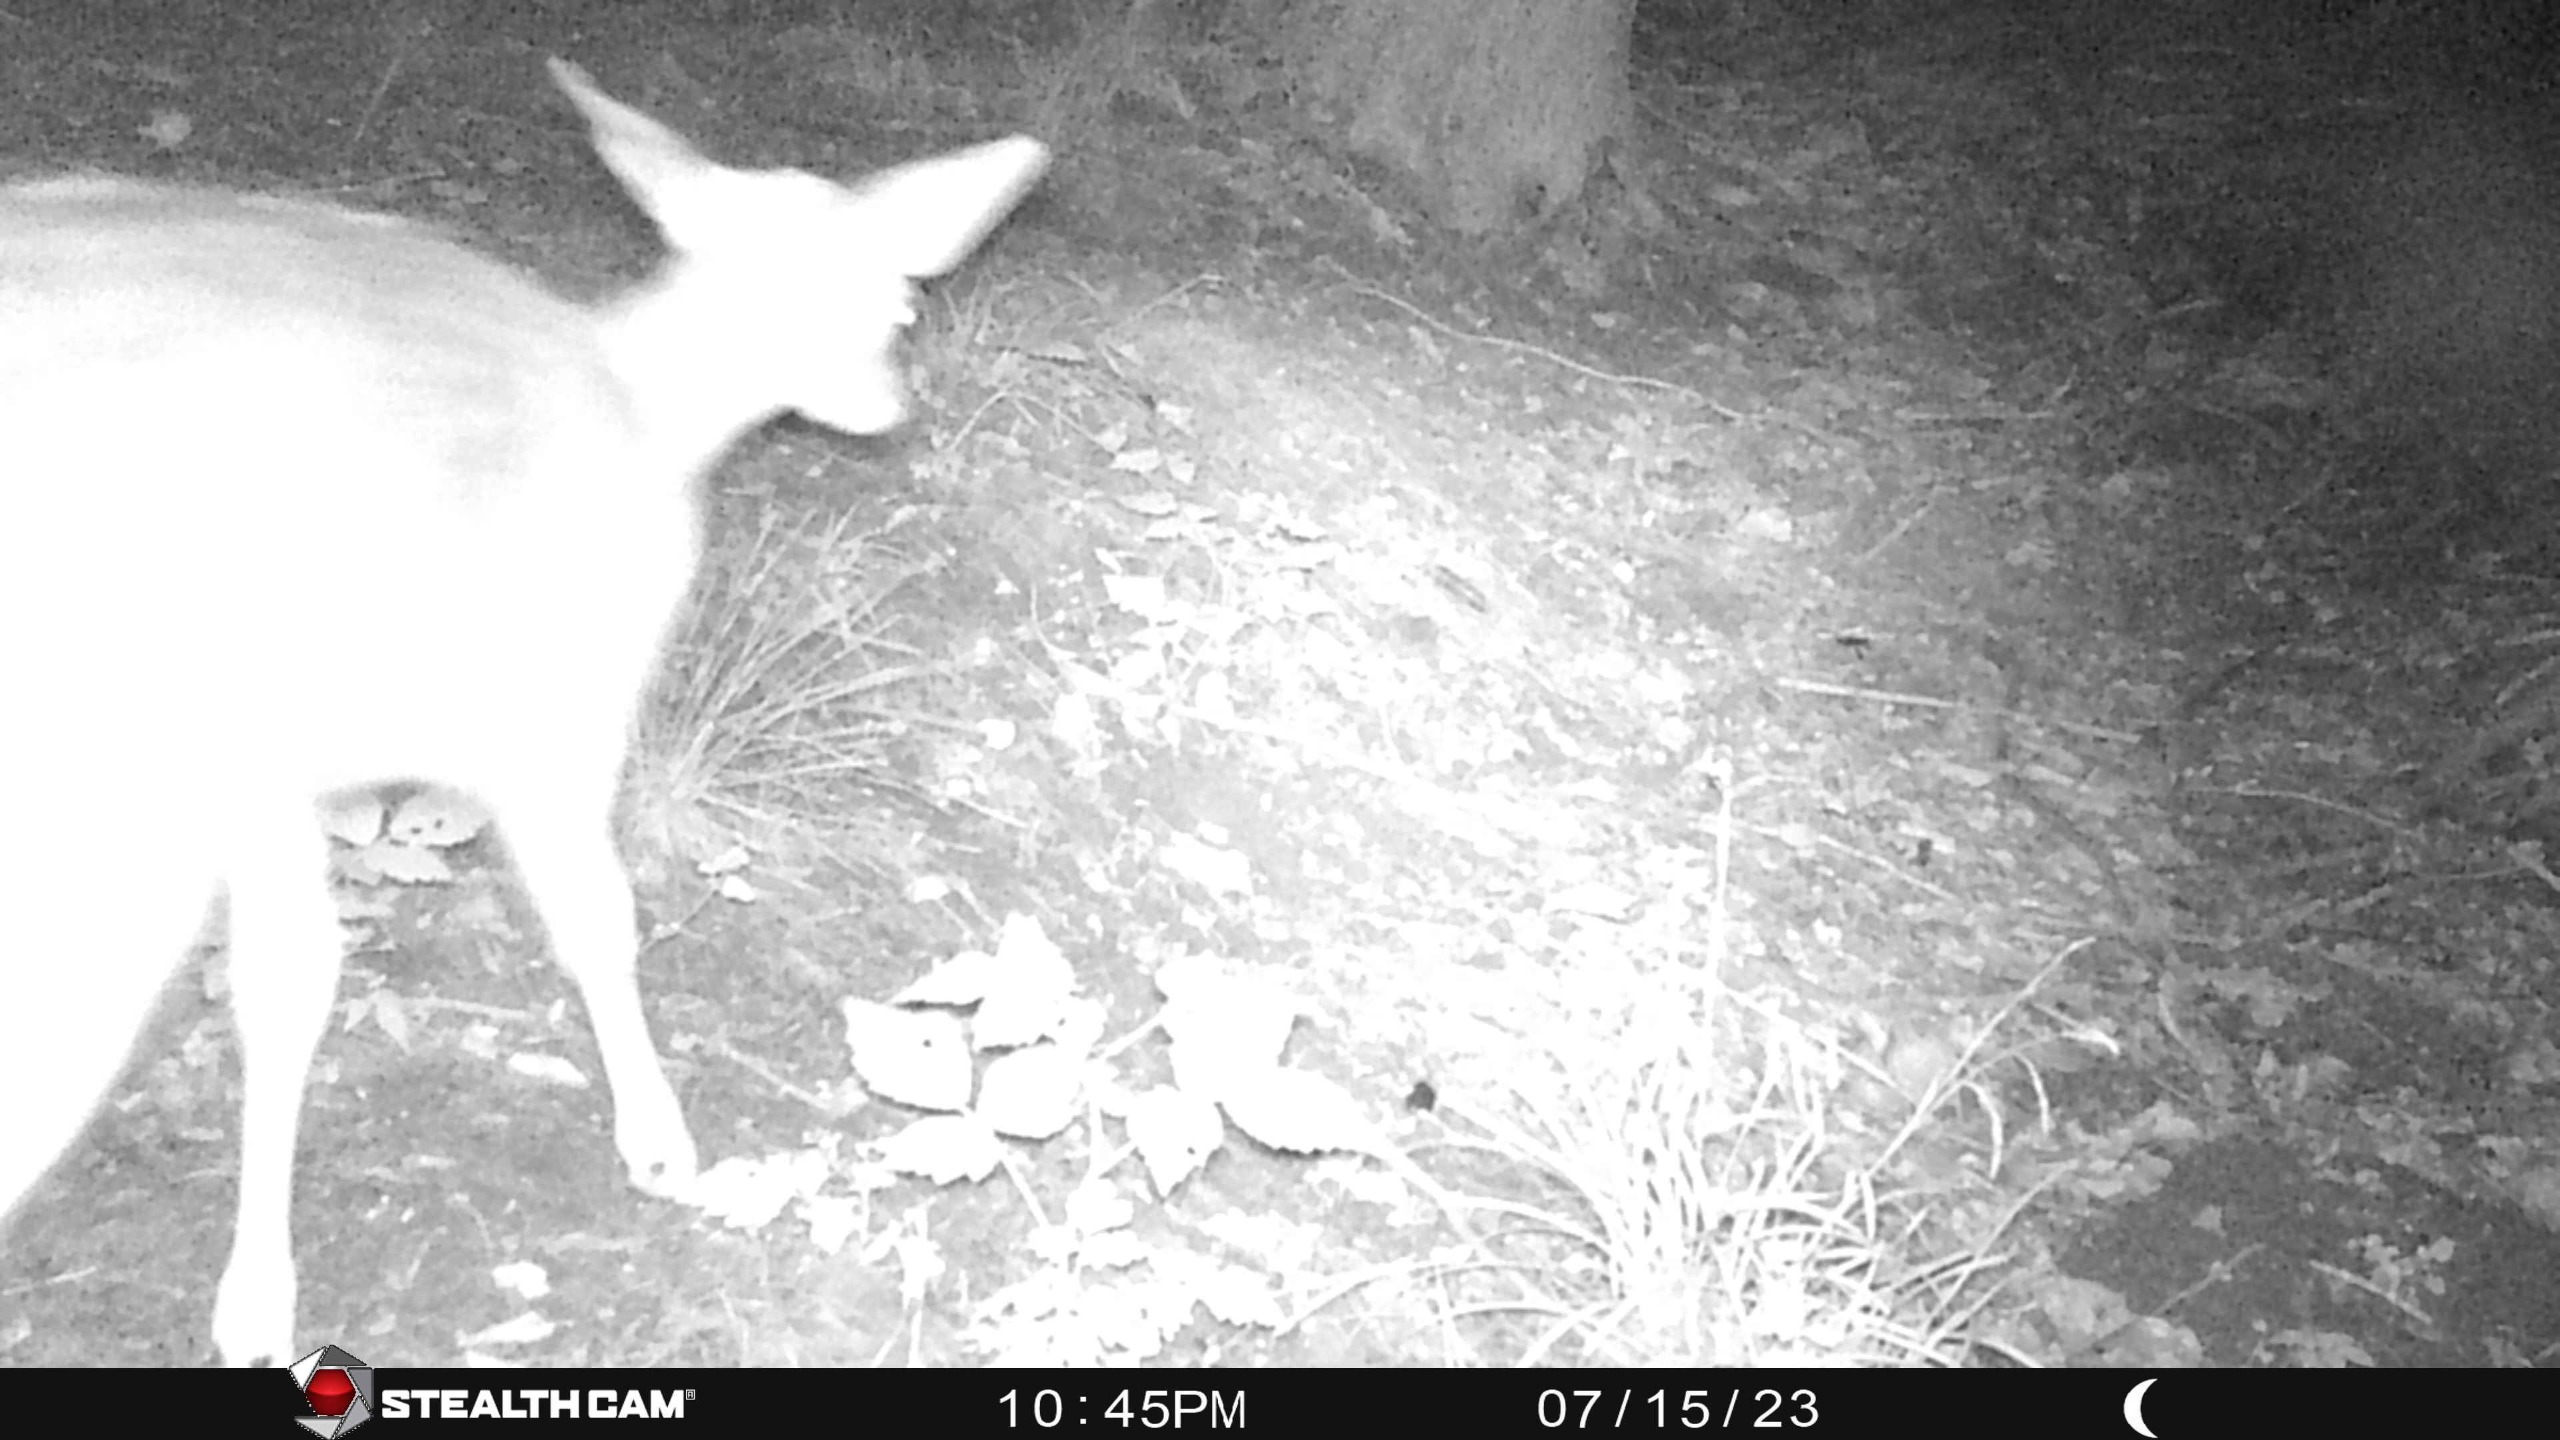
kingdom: Animalia
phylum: Chordata
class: Mammalia
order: Artiodactyla
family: Cervidae
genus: Dama
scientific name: Dama dama
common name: Dådyr
